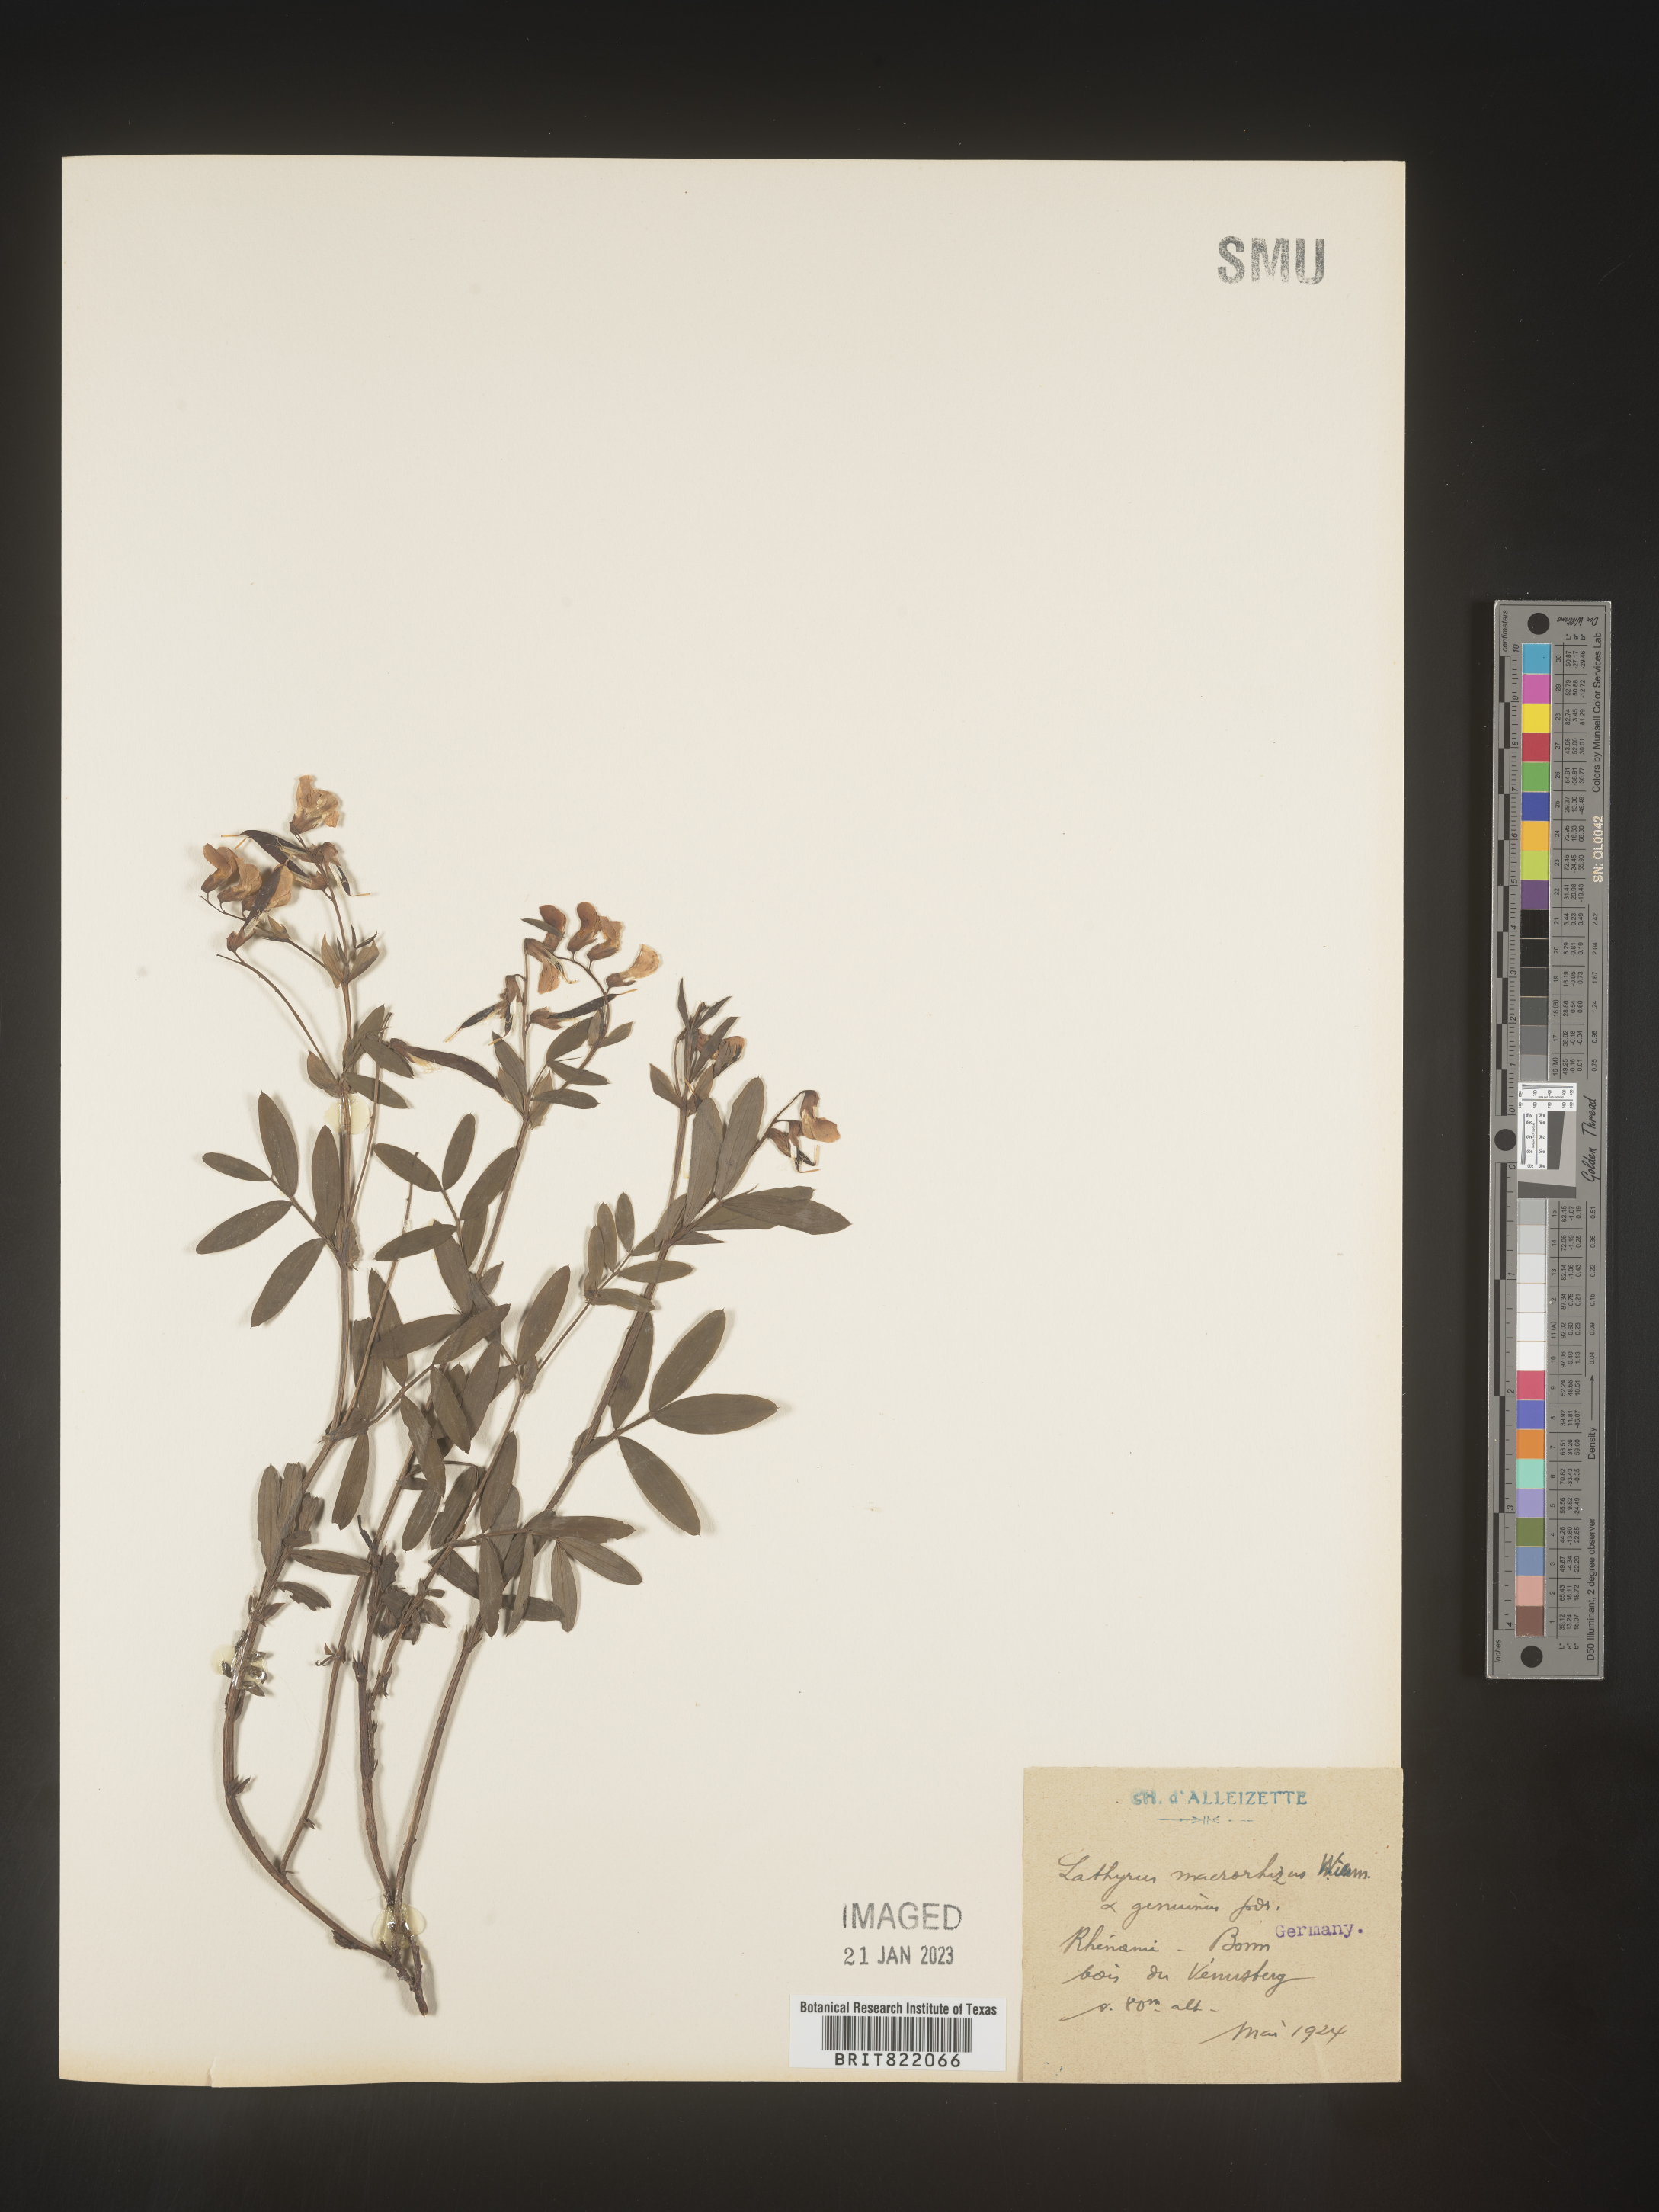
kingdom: Plantae
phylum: Tracheophyta
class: Magnoliopsida
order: Fabales
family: Fabaceae
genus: Lathyrus
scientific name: Lathyrus
